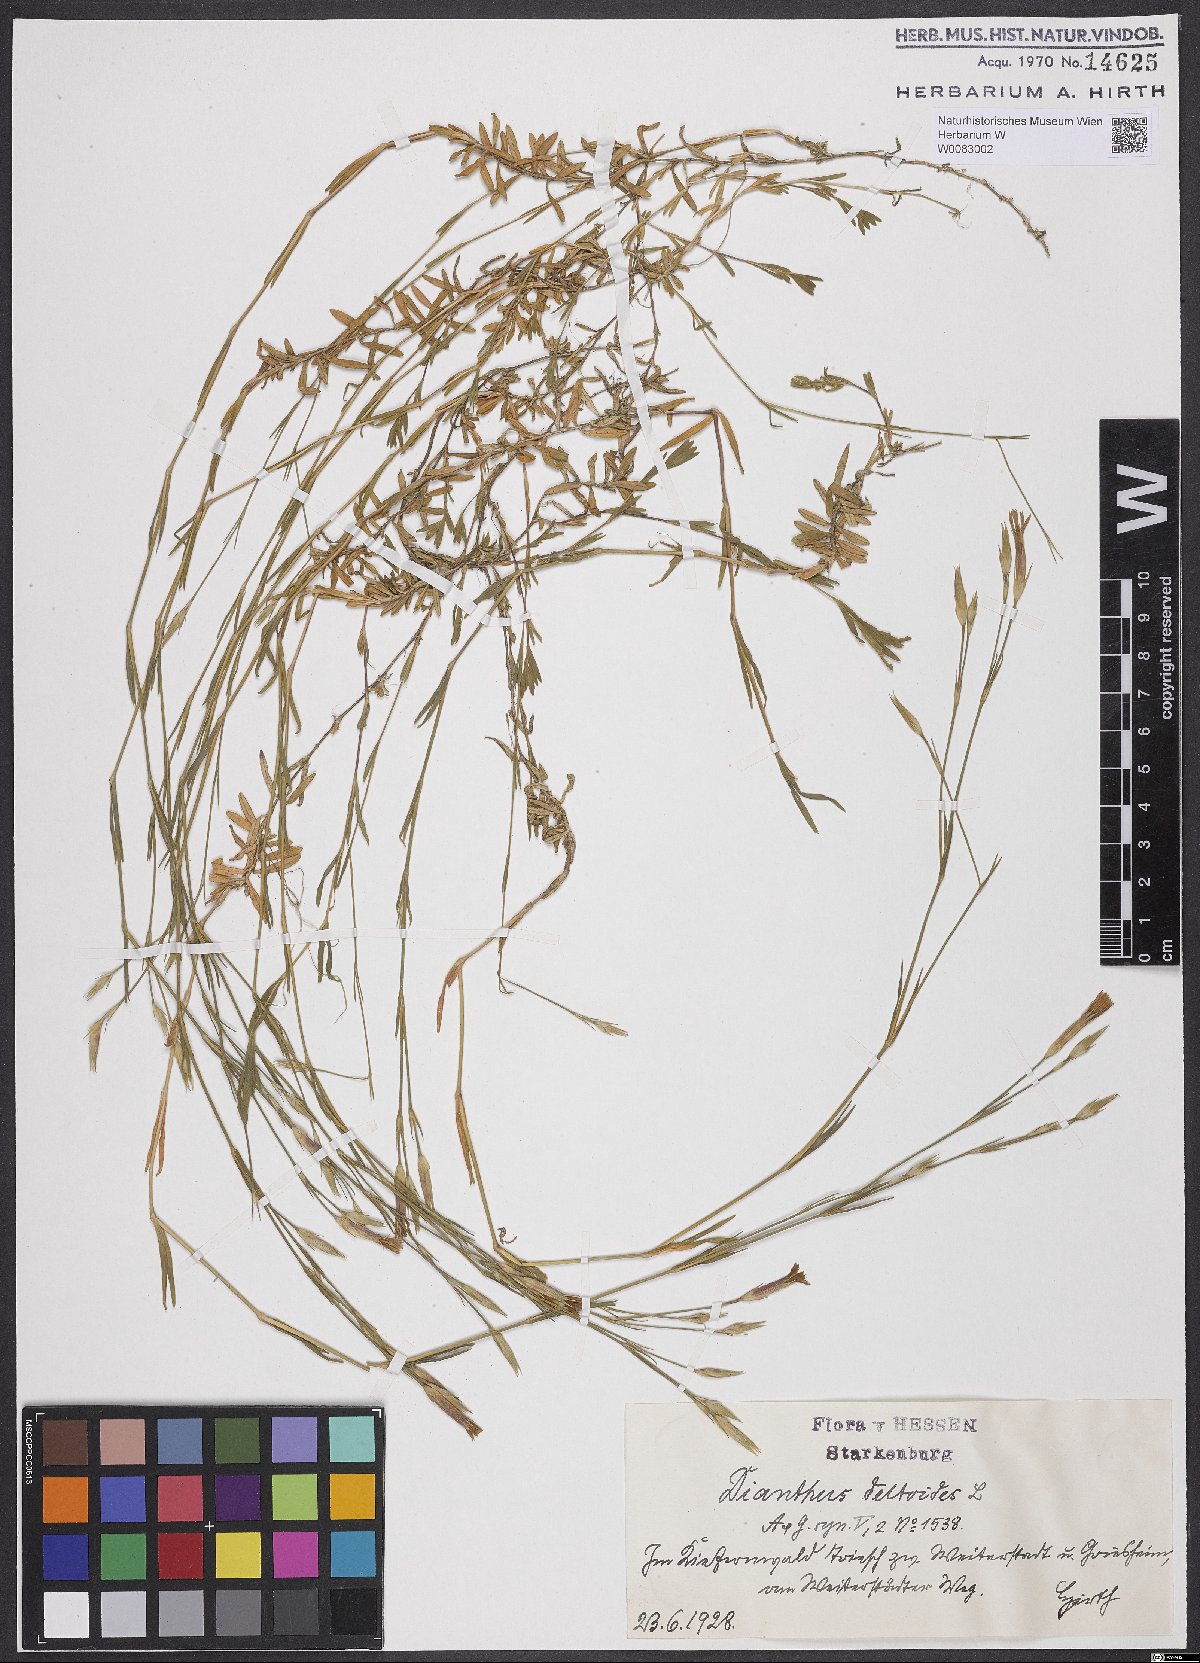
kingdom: Plantae
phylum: Tracheophyta
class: Magnoliopsida
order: Caryophyllales
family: Caryophyllaceae
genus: Dianthus
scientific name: Dianthus deltoides
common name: Maiden pink
